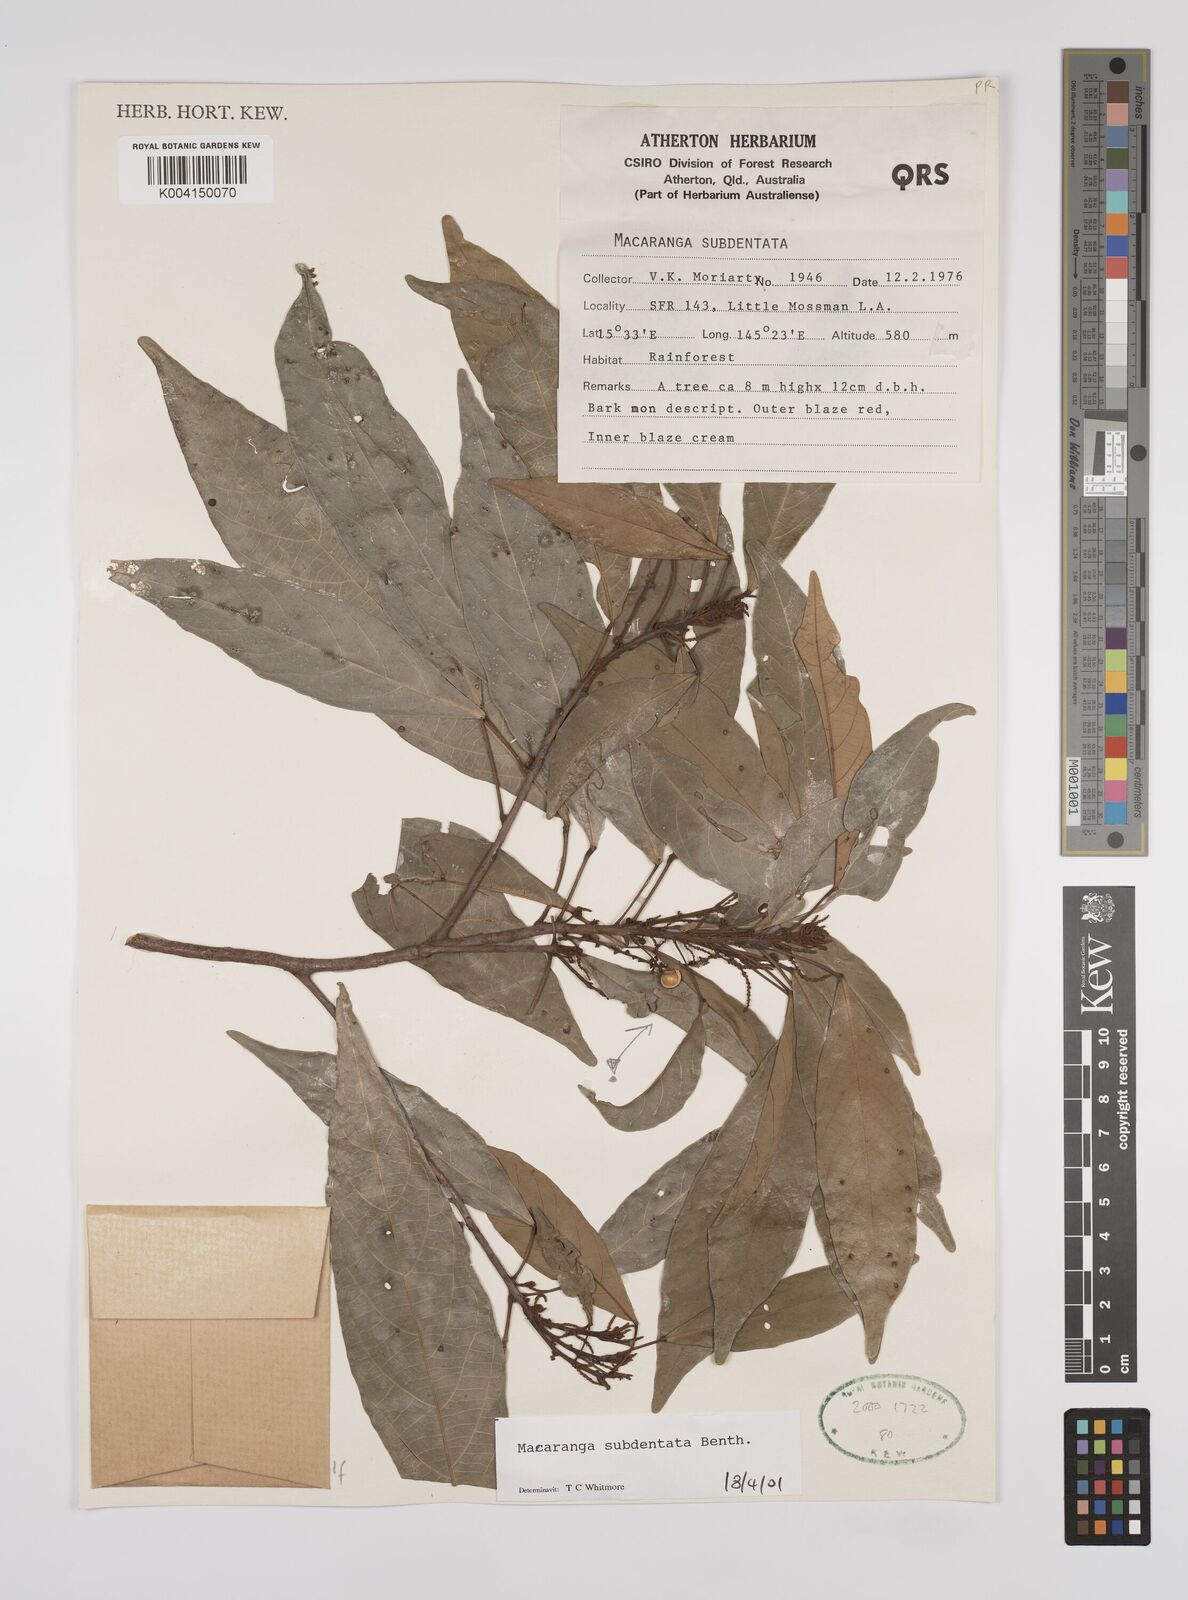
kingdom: Plantae
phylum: Tracheophyta
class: Magnoliopsida
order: Malpighiales
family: Euphorbiaceae
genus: Macaranga
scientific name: Macaranga subdentata
